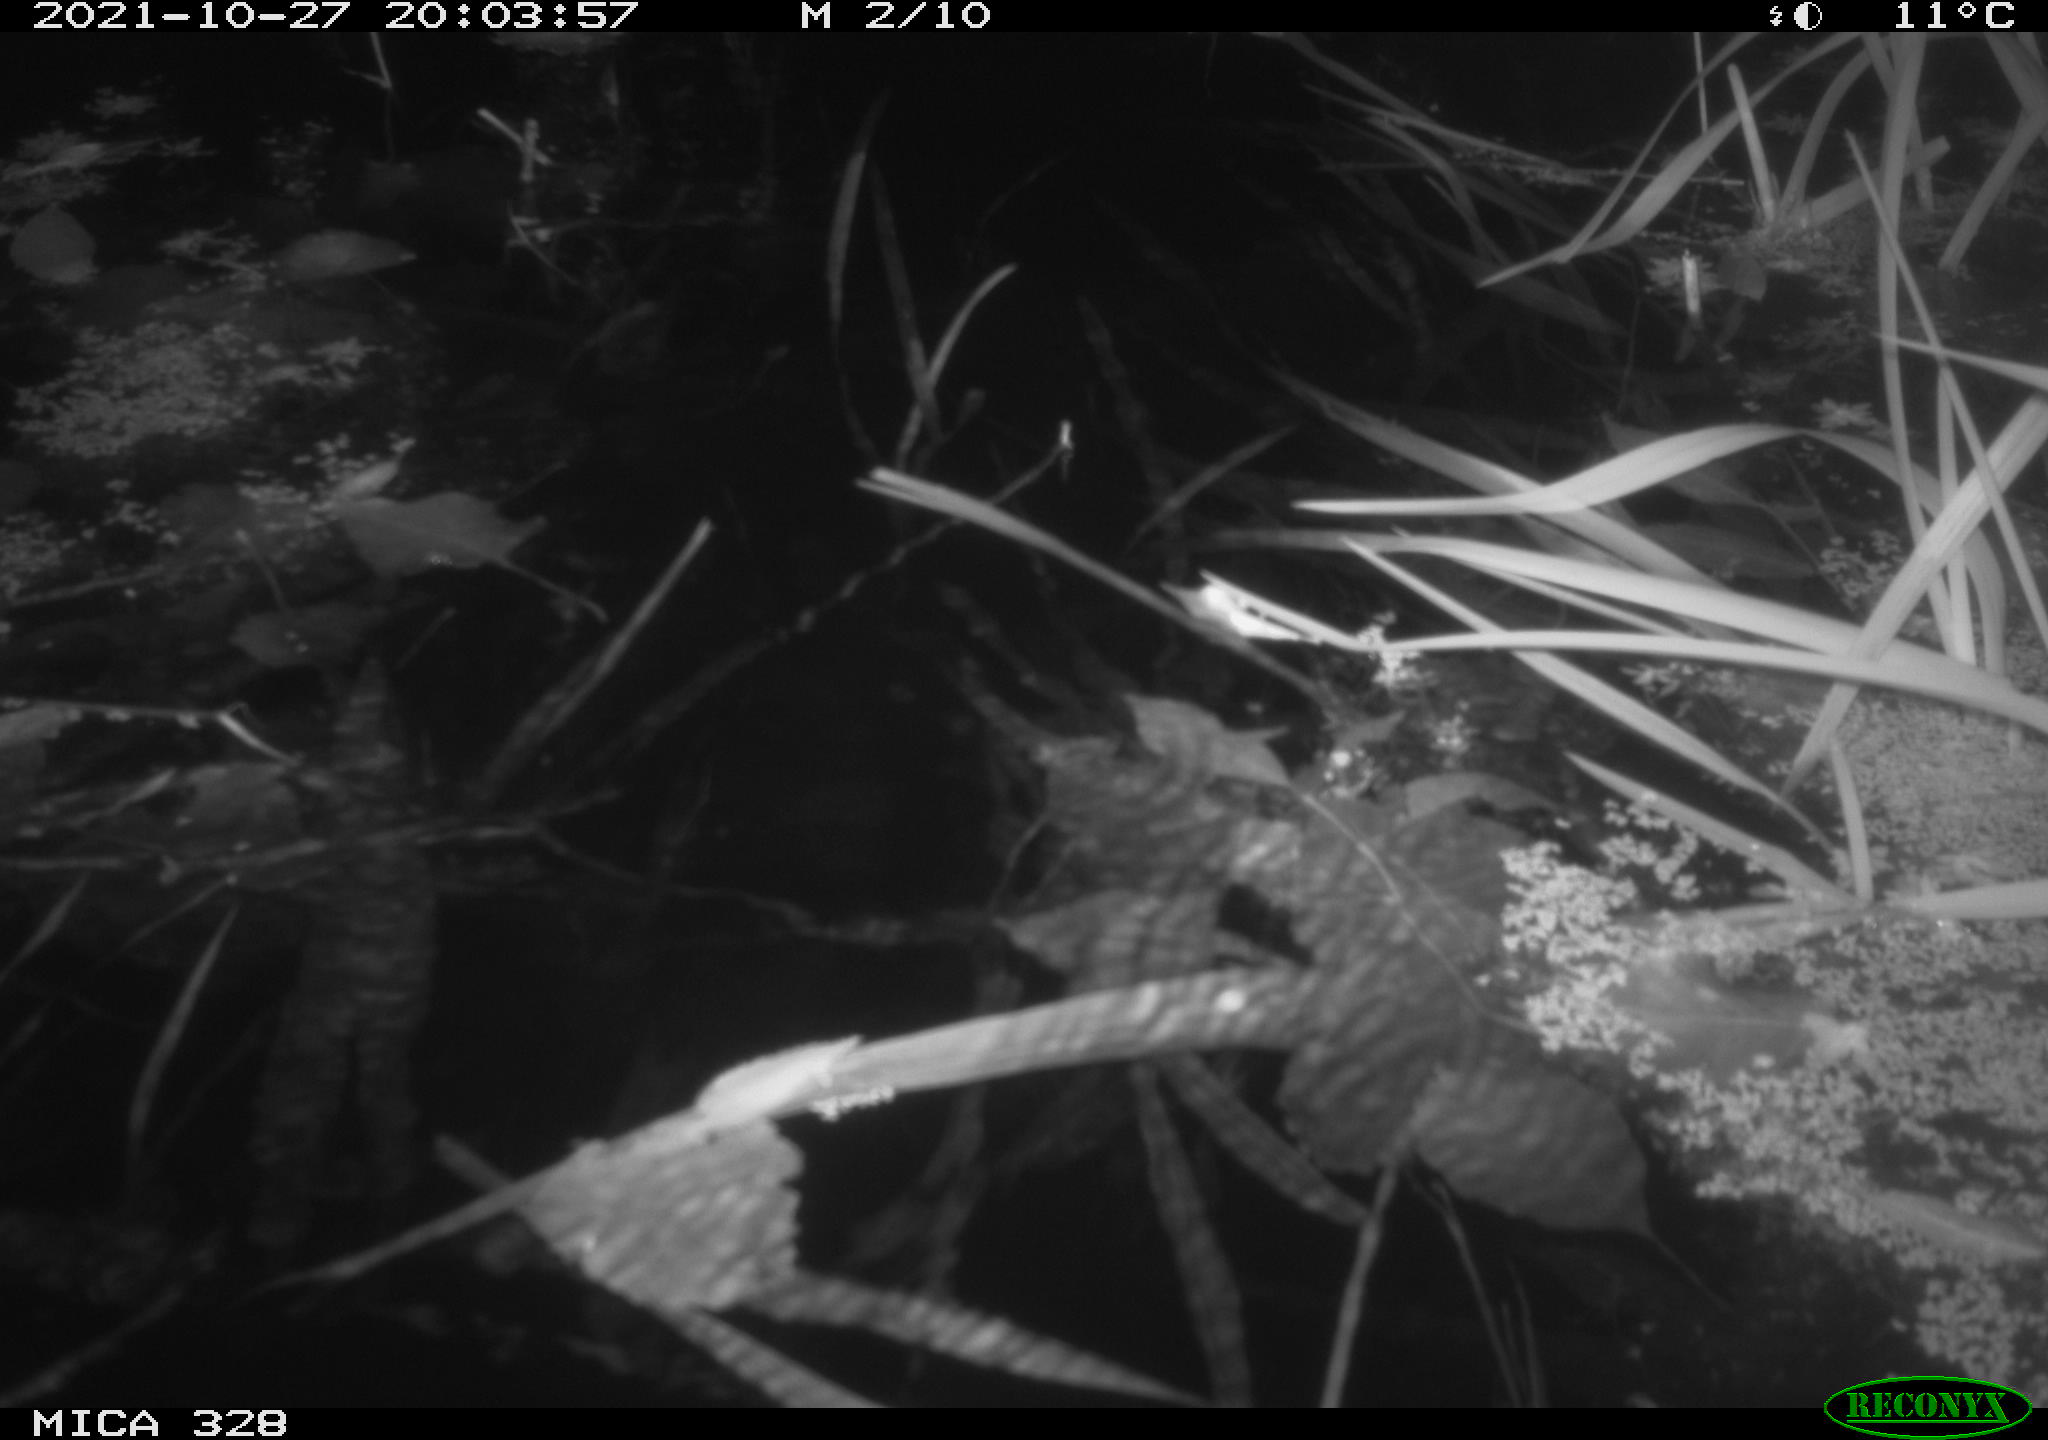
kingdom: Animalia
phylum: Chordata
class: Mammalia
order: Rodentia
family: Muridae
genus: Rattus
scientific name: Rattus norvegicus
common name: Brown rat
